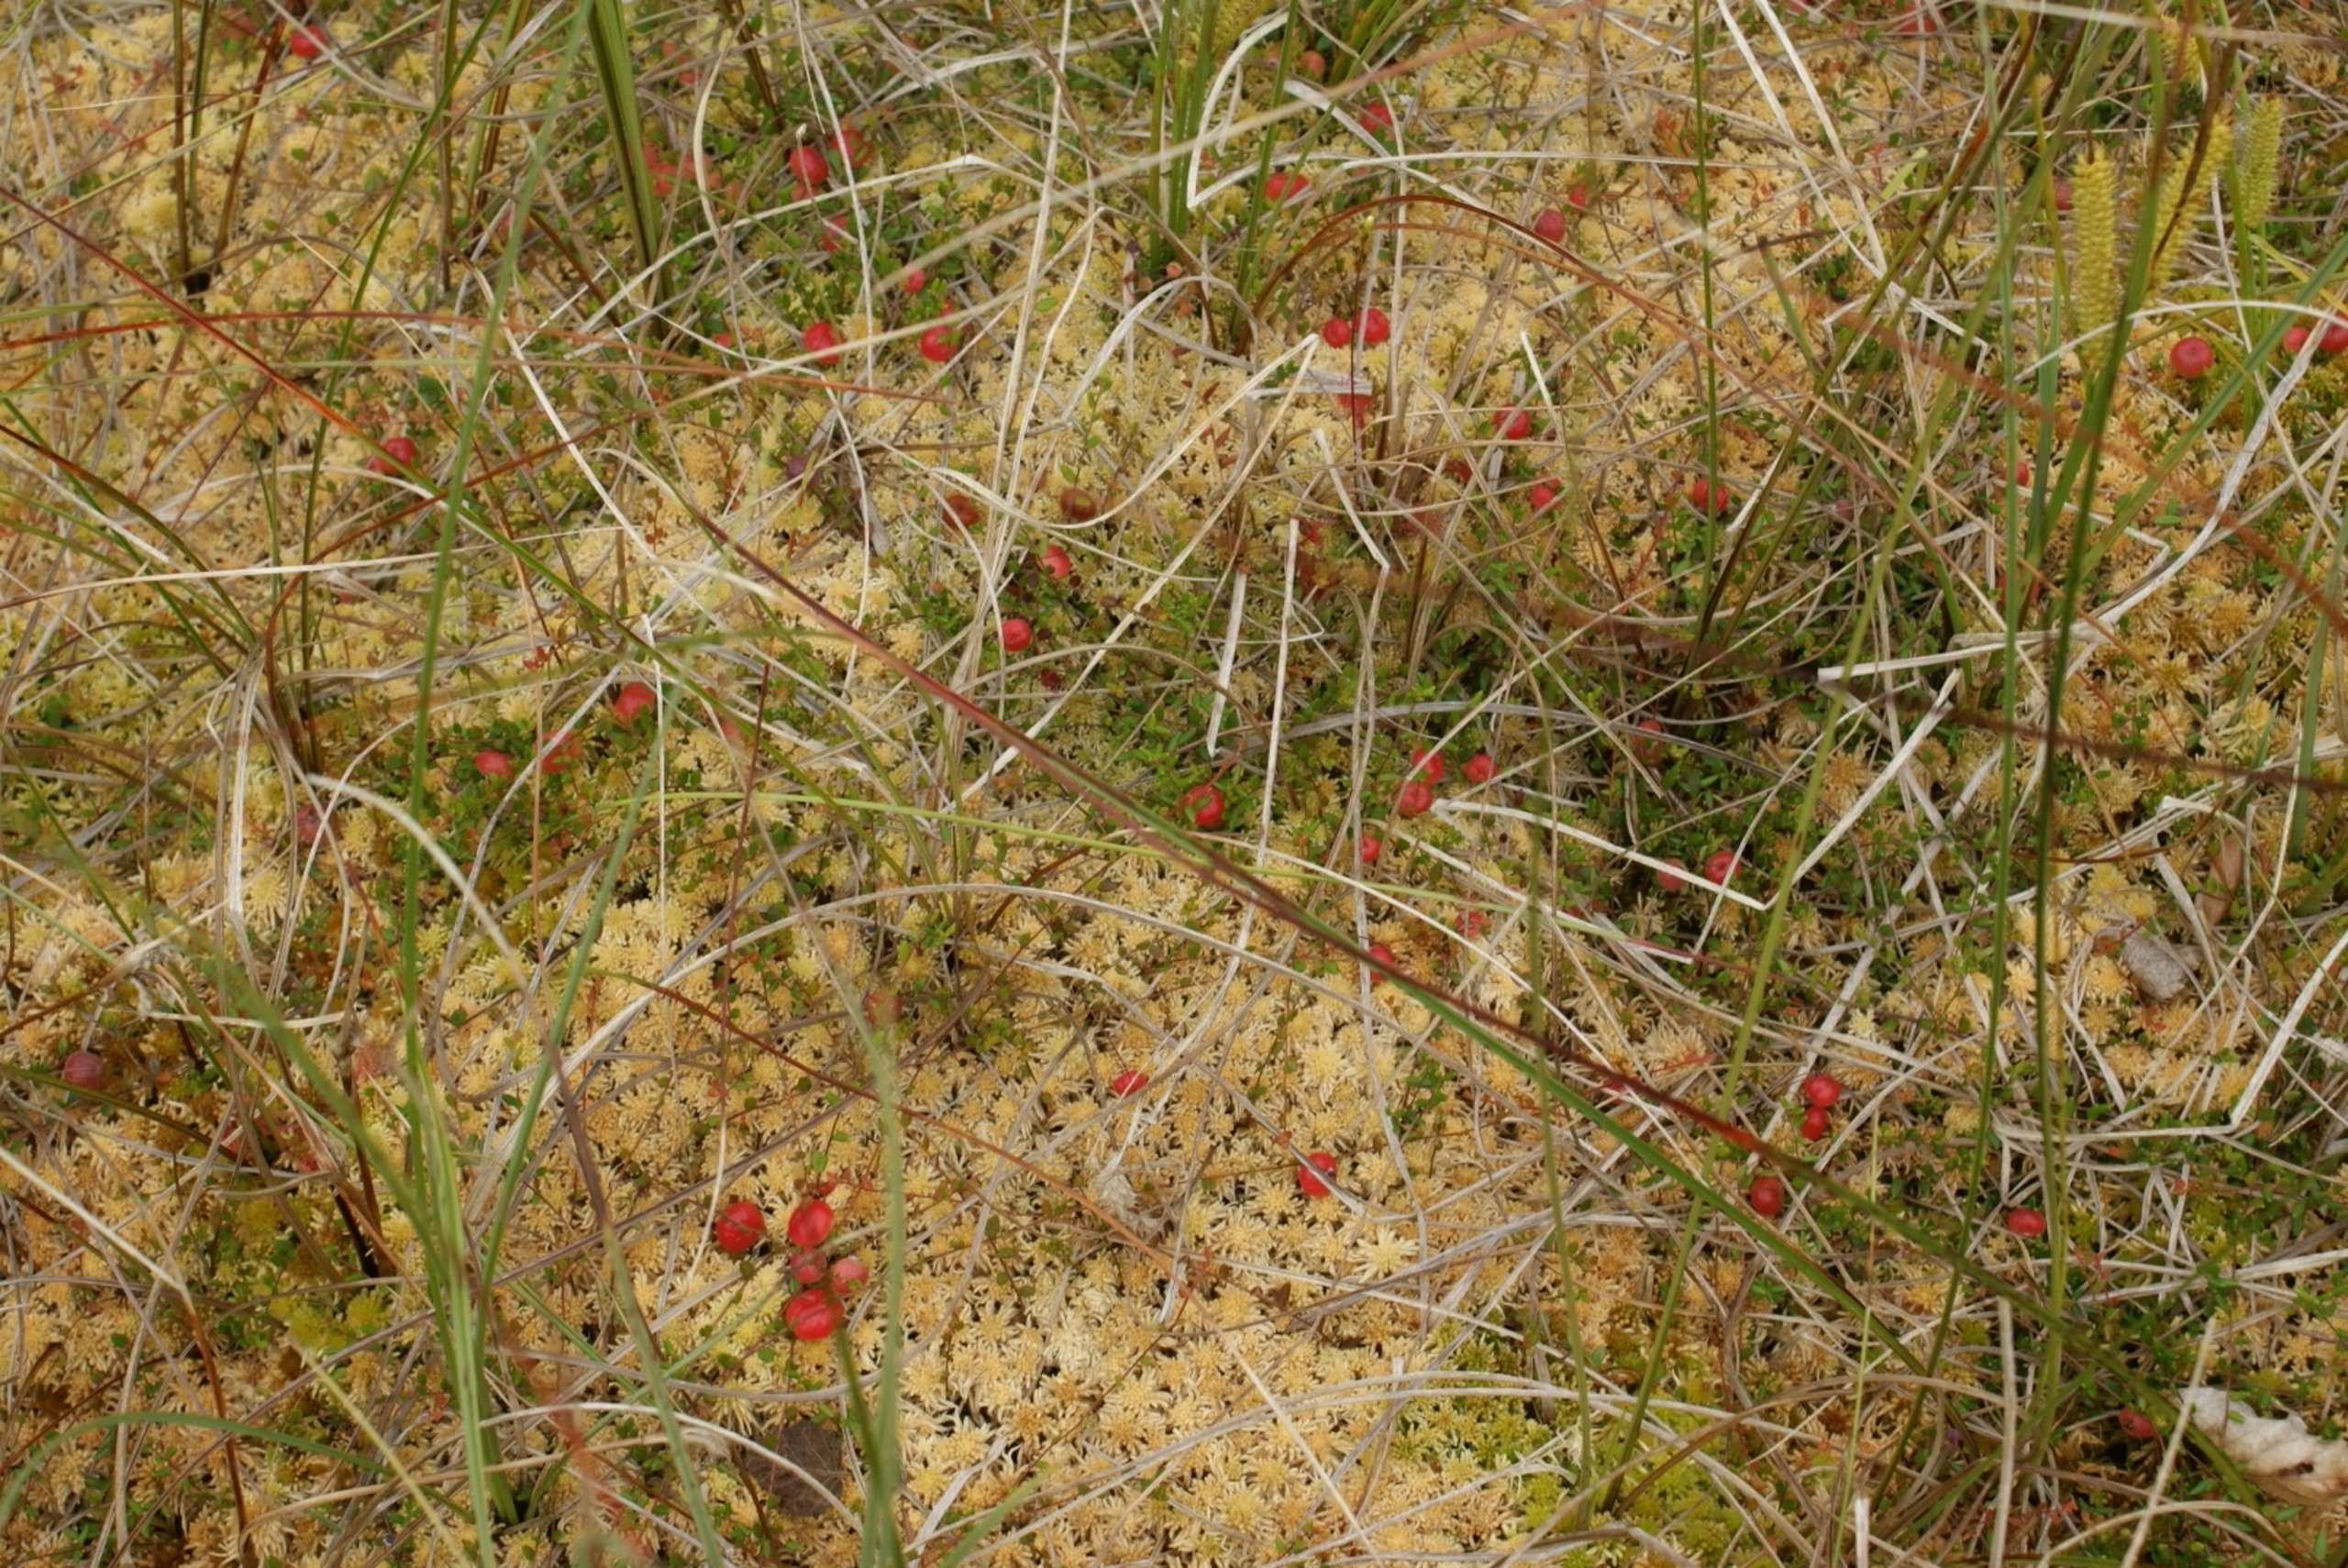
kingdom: Plantae
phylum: Tracheophyta
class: Magnoliopsida
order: Ericales
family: Ericaceae
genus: Vaccinium
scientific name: Vaccinium oxycoccos
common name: Tranebær
